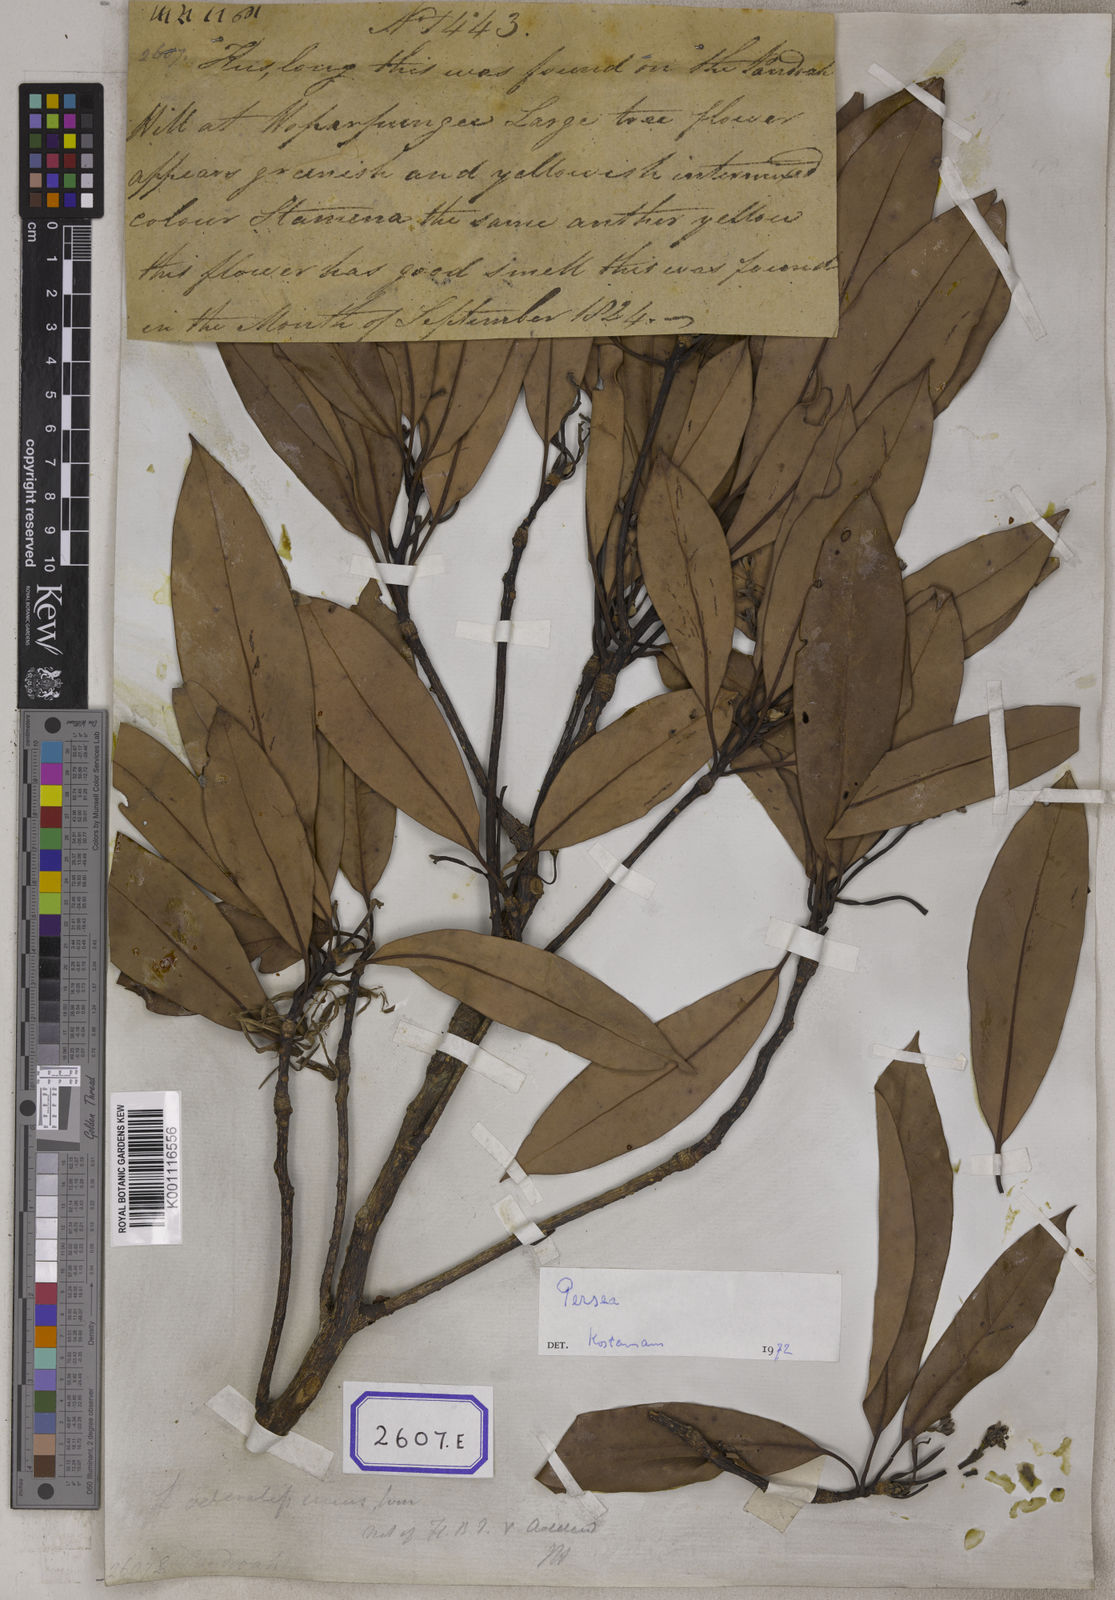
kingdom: Plantae
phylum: Tracheophyta
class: Magnoliopsida
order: Laurales
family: Lauraceae
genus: Machilus
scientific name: Machilus odoratissimus
